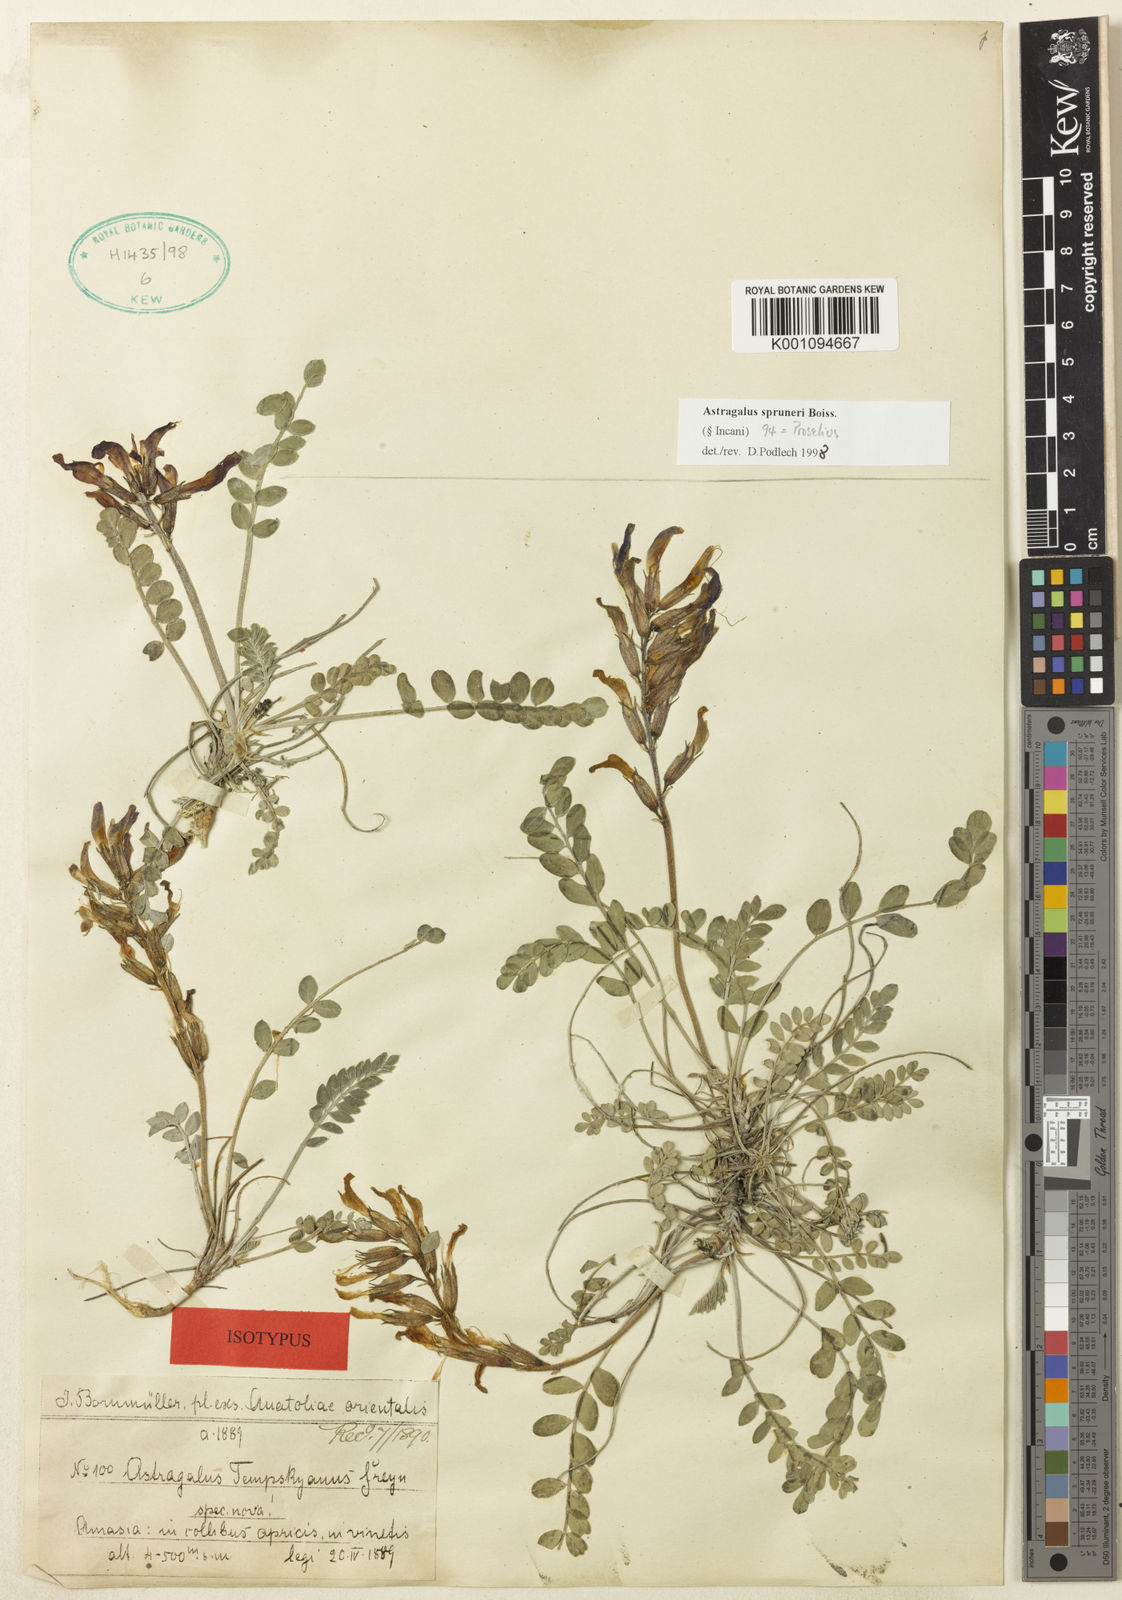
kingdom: Plantae
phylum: Tracheophyta
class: Magnoliopsida
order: Fabales
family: Fabaceae
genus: Astragalus
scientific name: Astragalus
